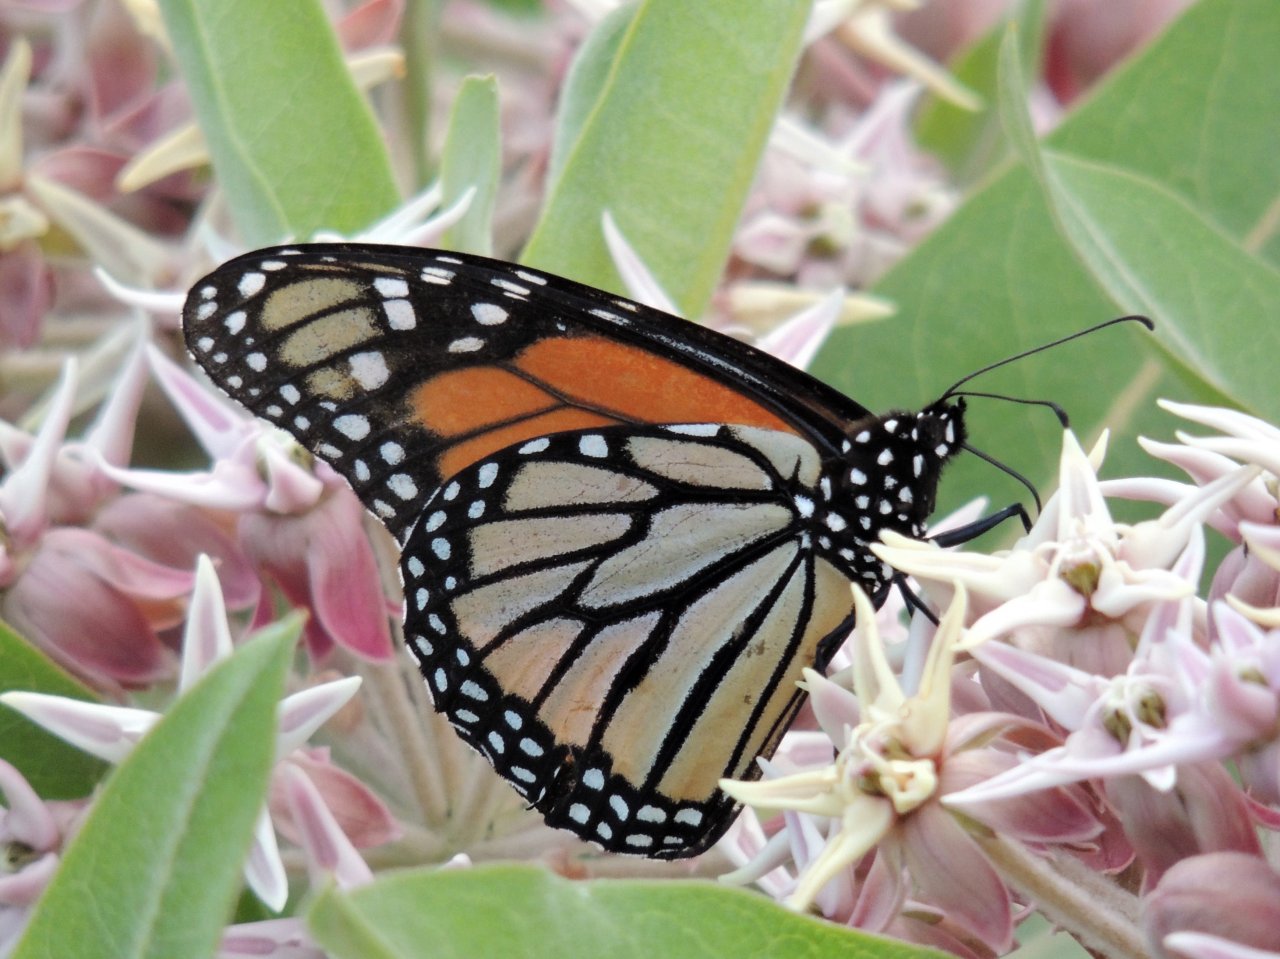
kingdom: Animalia
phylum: Arthropoda
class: Insecta
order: Lepidoptera
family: Nymphalidae
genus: Danaus
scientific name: Danaus plexippus
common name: Monarch
